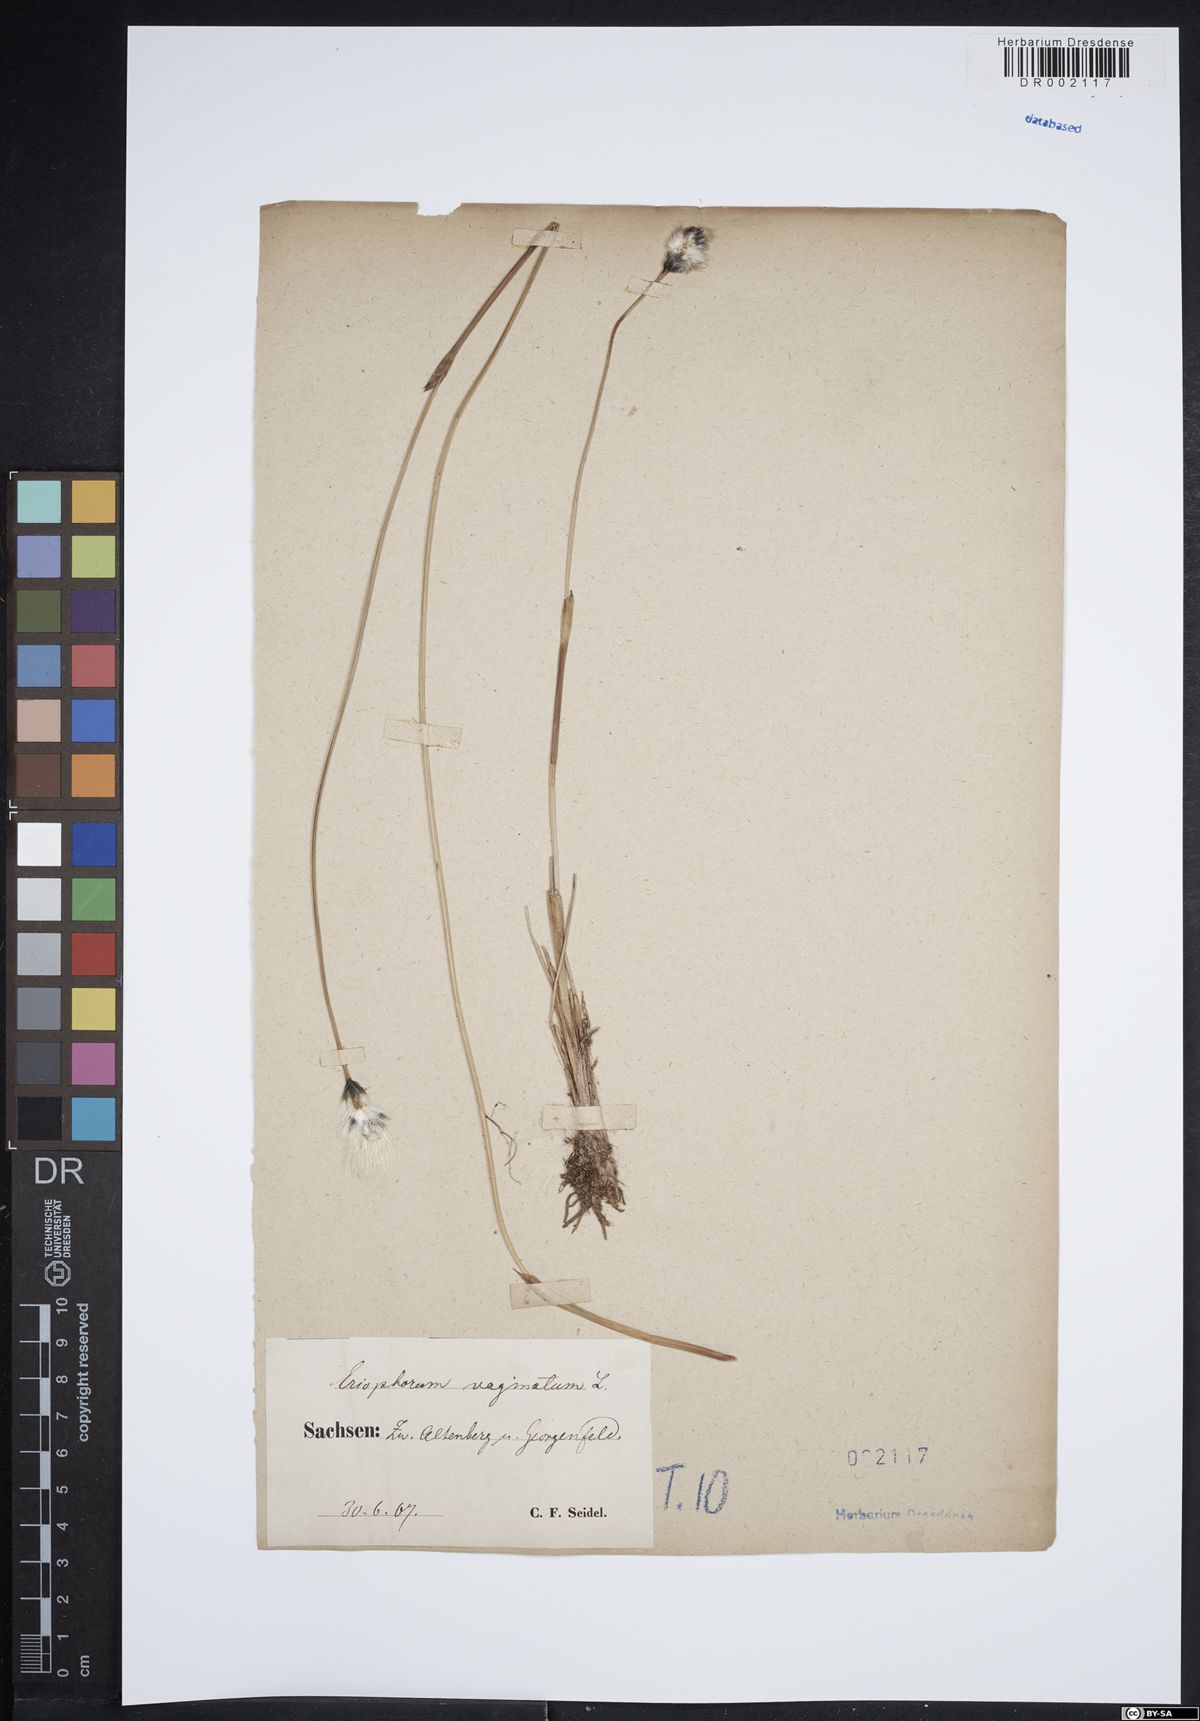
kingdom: Plantae
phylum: Tracheophyta
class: Liliopsida
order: Poales
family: Cyperaceae
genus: Eriophorum
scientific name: Eriophorum vaginatum
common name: Hare's-tail cottongrass
